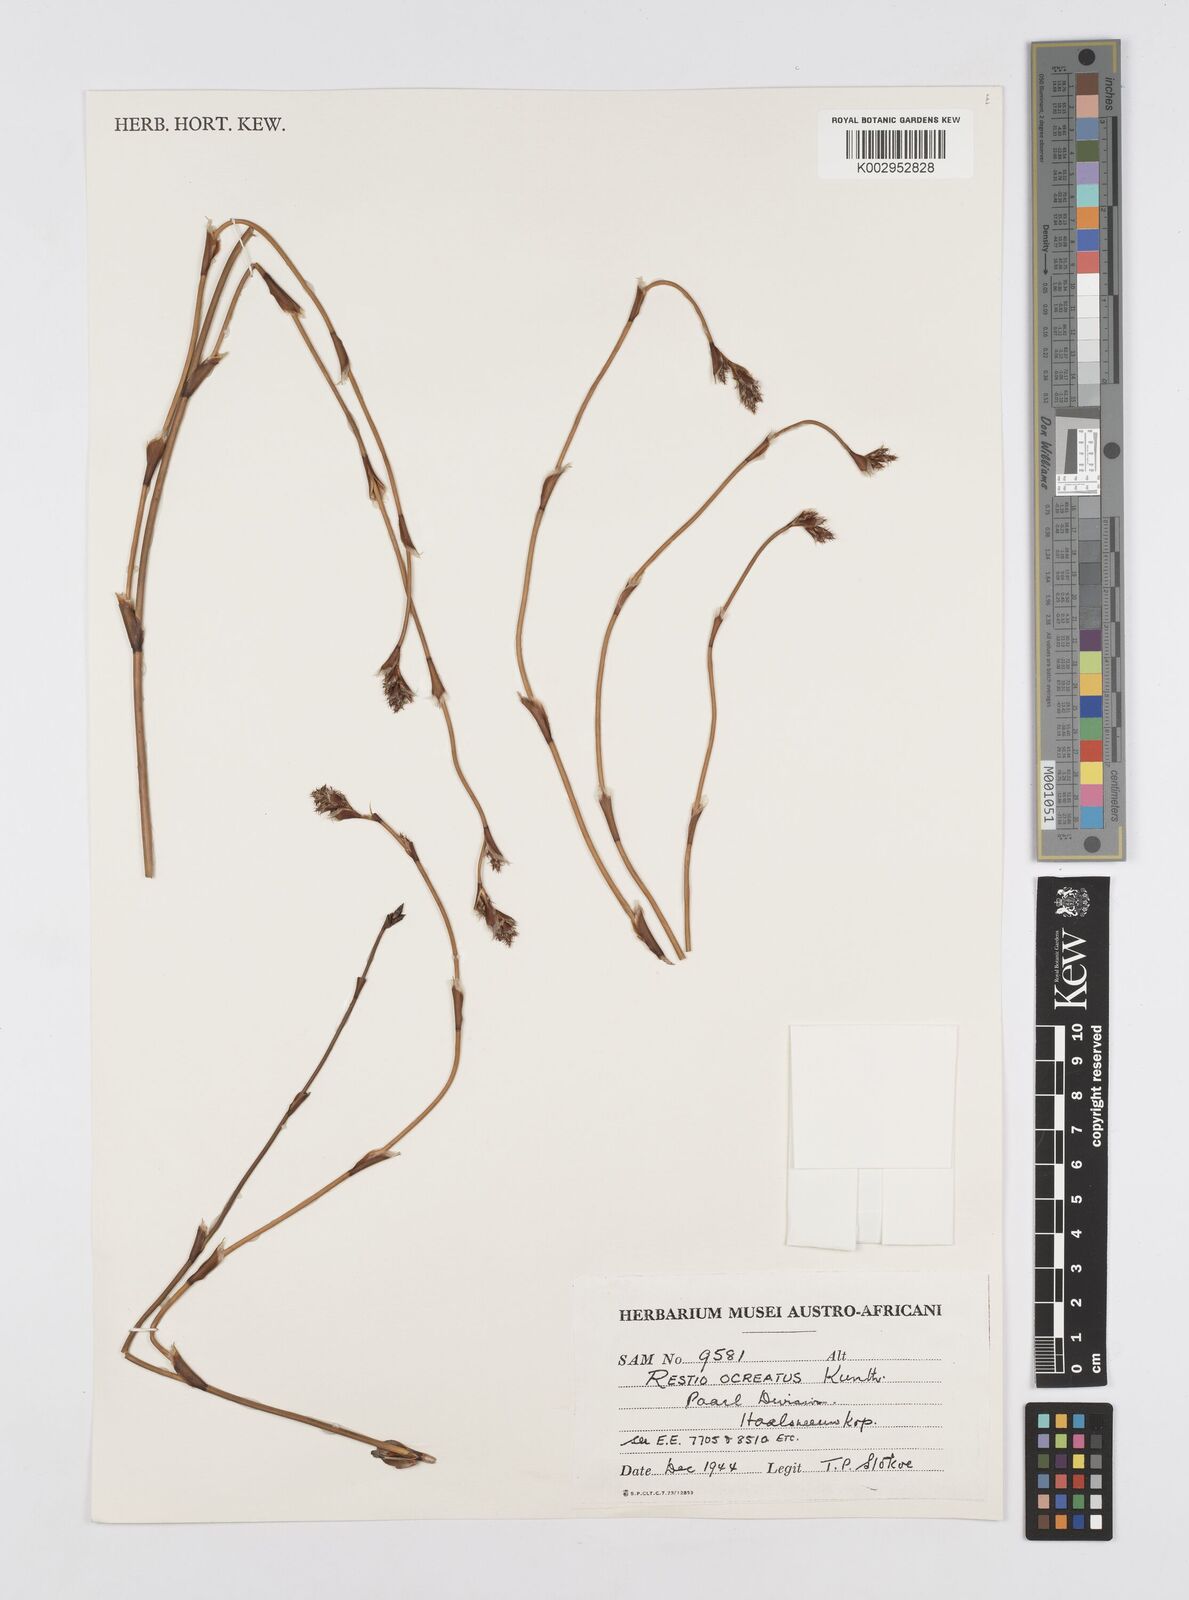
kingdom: Plantae
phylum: Tracheophyta
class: Liliopsida
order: Poales
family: Restionaceae
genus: Restio
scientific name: Restio ocreatus
